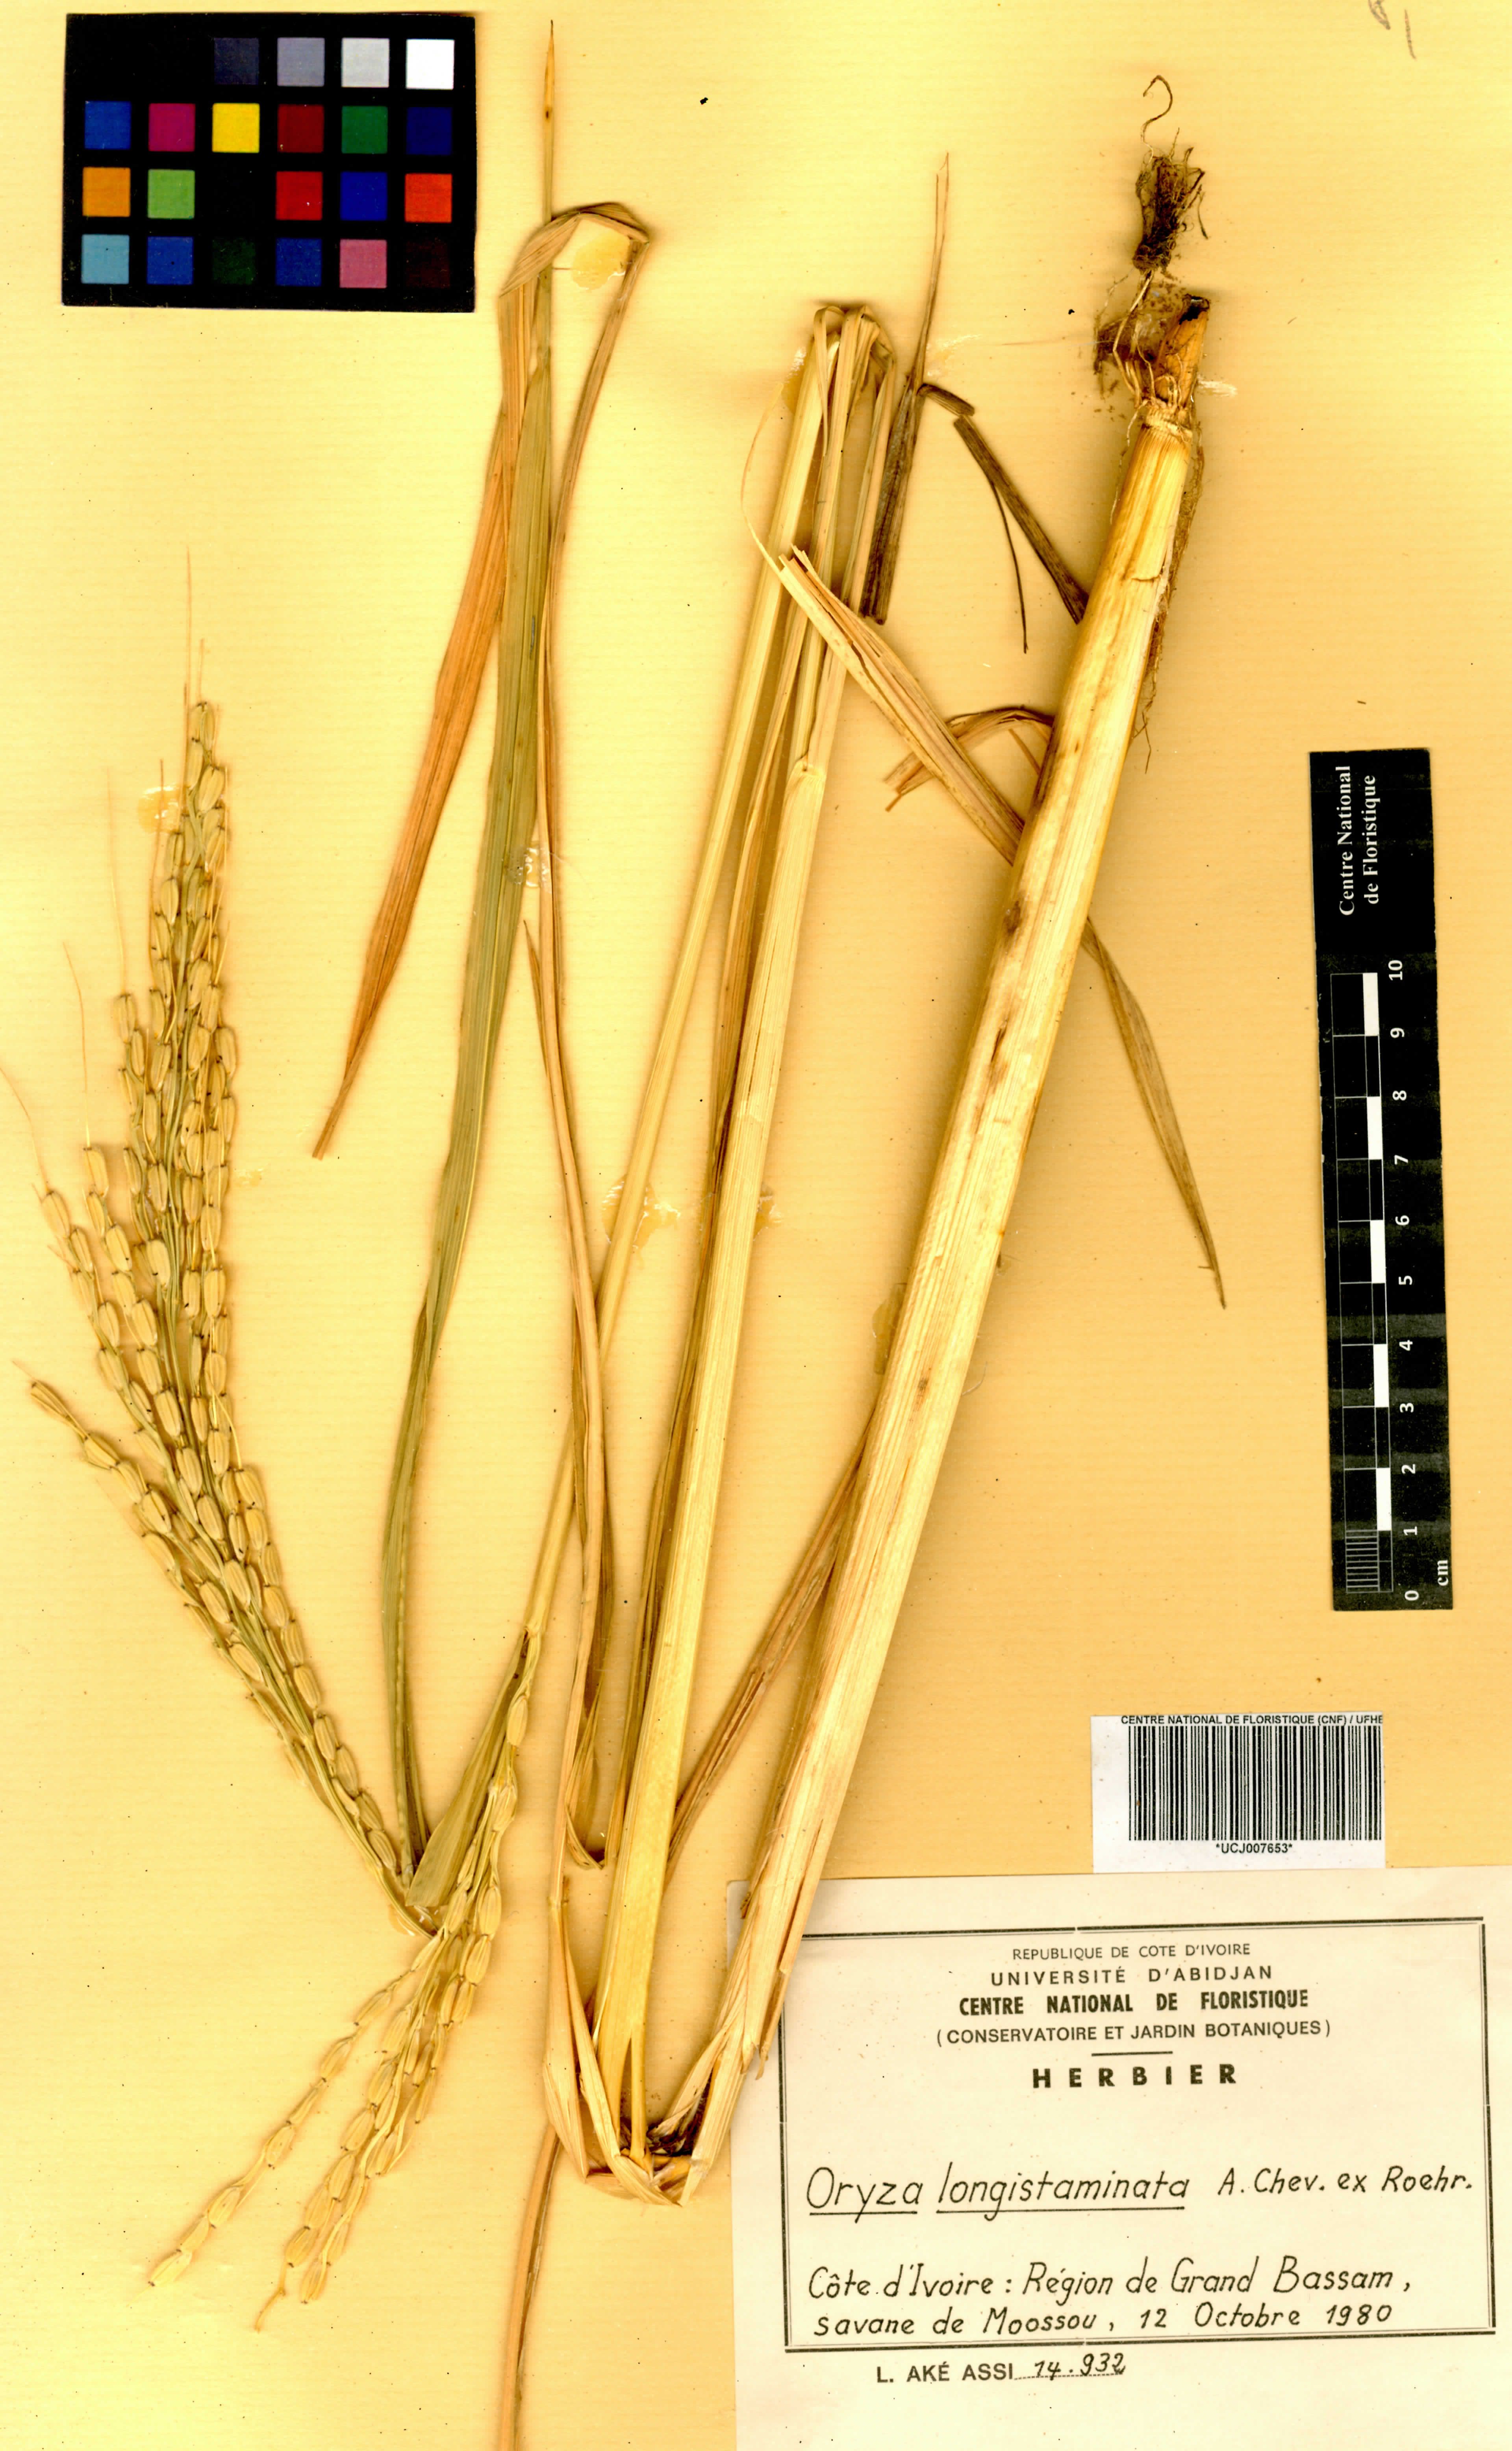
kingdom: Plantae
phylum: Tracheophyta
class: Liliopsida
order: Poales
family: Poaceae
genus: Oryza
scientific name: Oryza longistaminata
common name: Red rice
